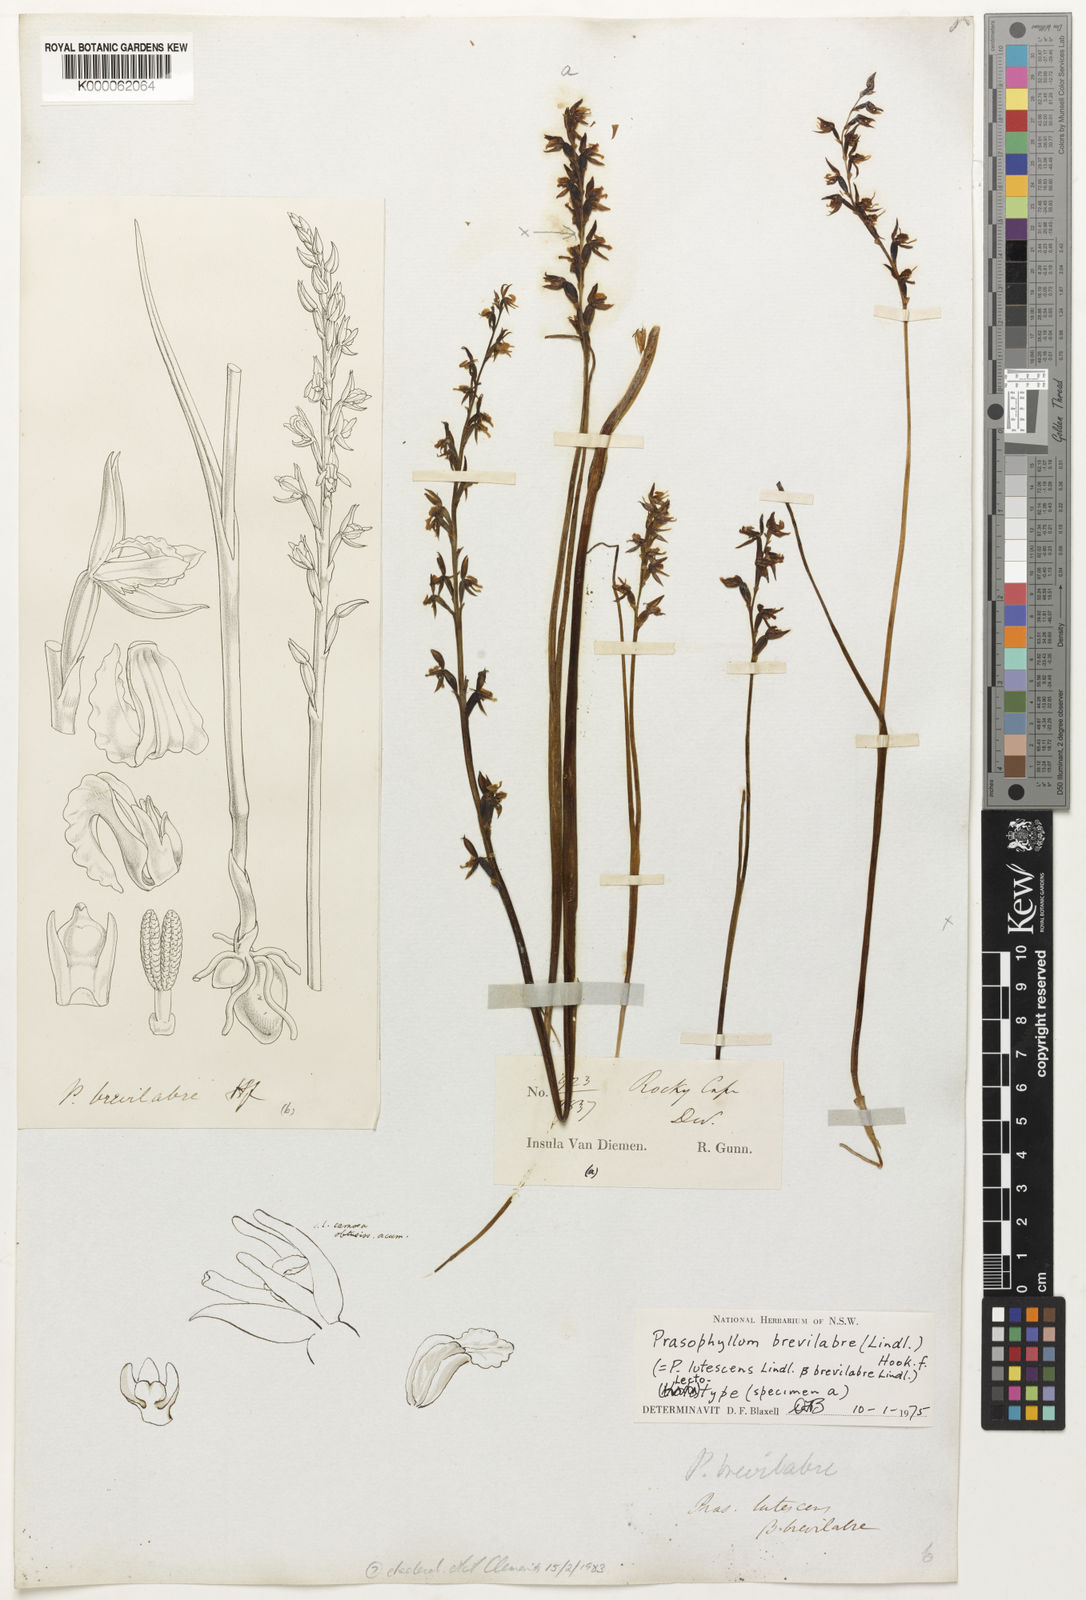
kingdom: Plantae
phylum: Tracheophyta
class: Liliopsida
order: Asparagales
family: Orchidaceae
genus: Prasophyllum
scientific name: Prasophyllum brevilabre
